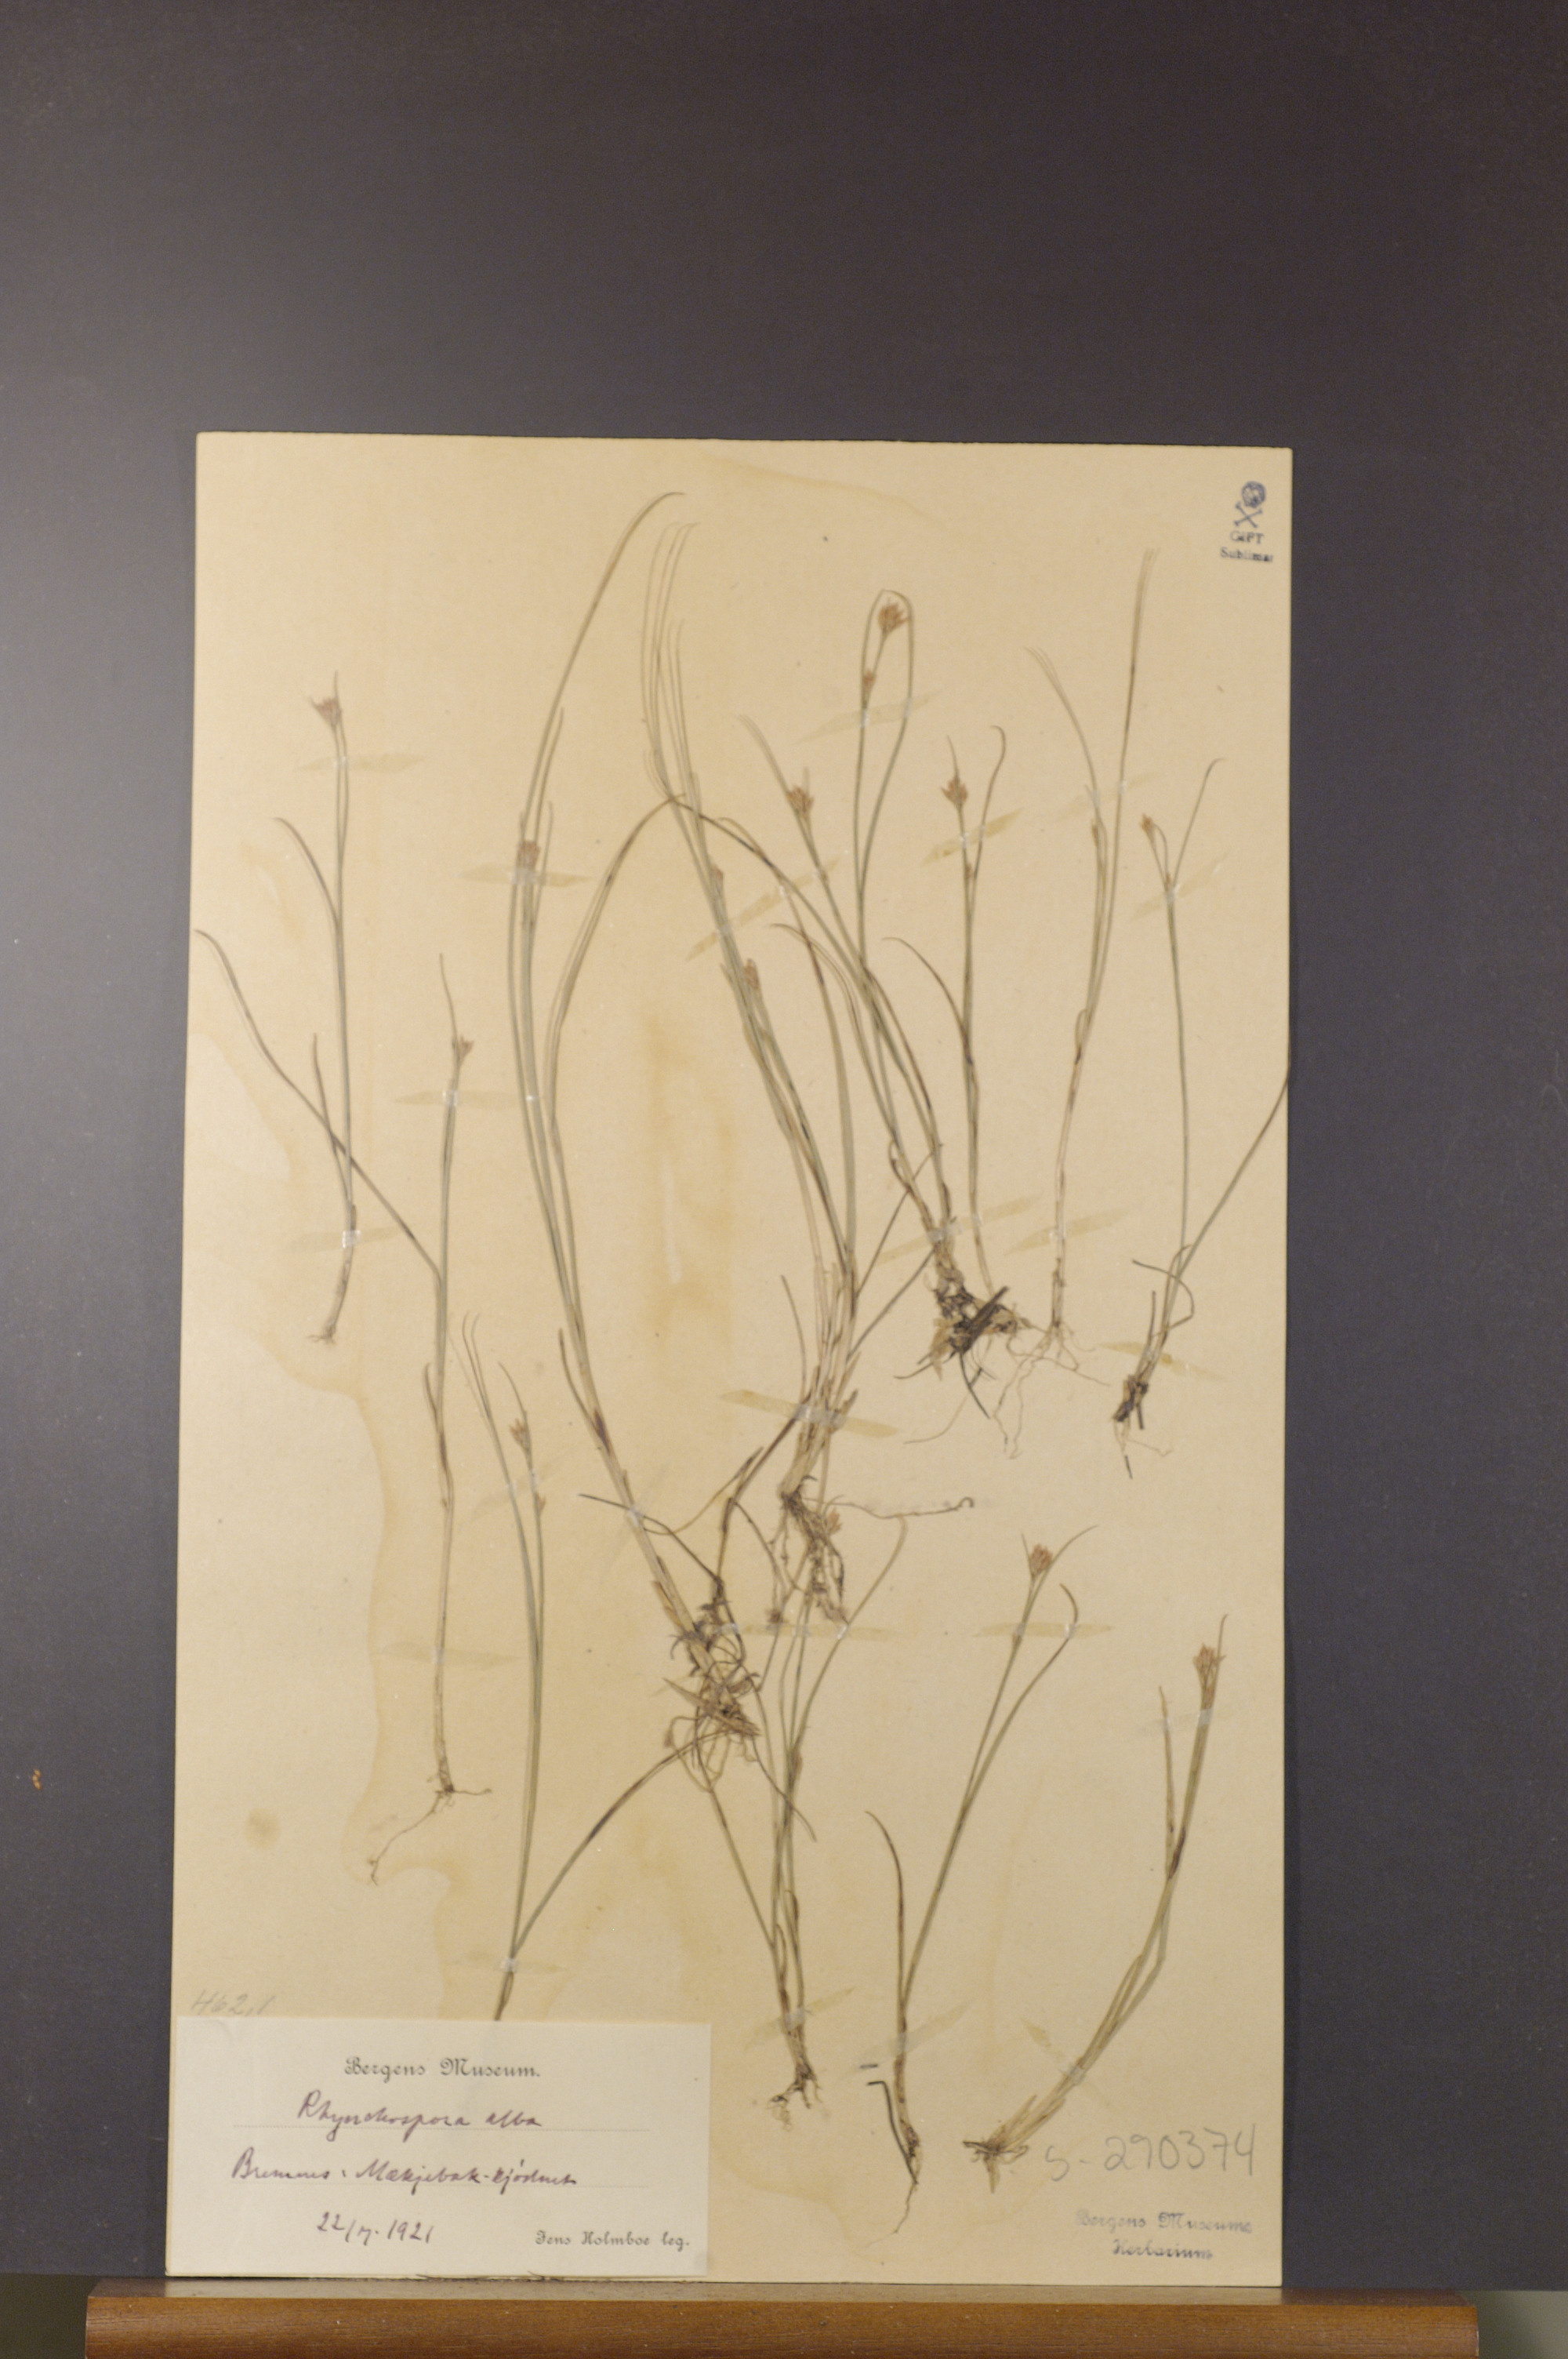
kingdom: Plantae
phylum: Tracheophyta
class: Liliopsida
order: Poales
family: Cyperaceae
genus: Rhynchospora
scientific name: Rhynchospora alba
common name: White beak-sedge
